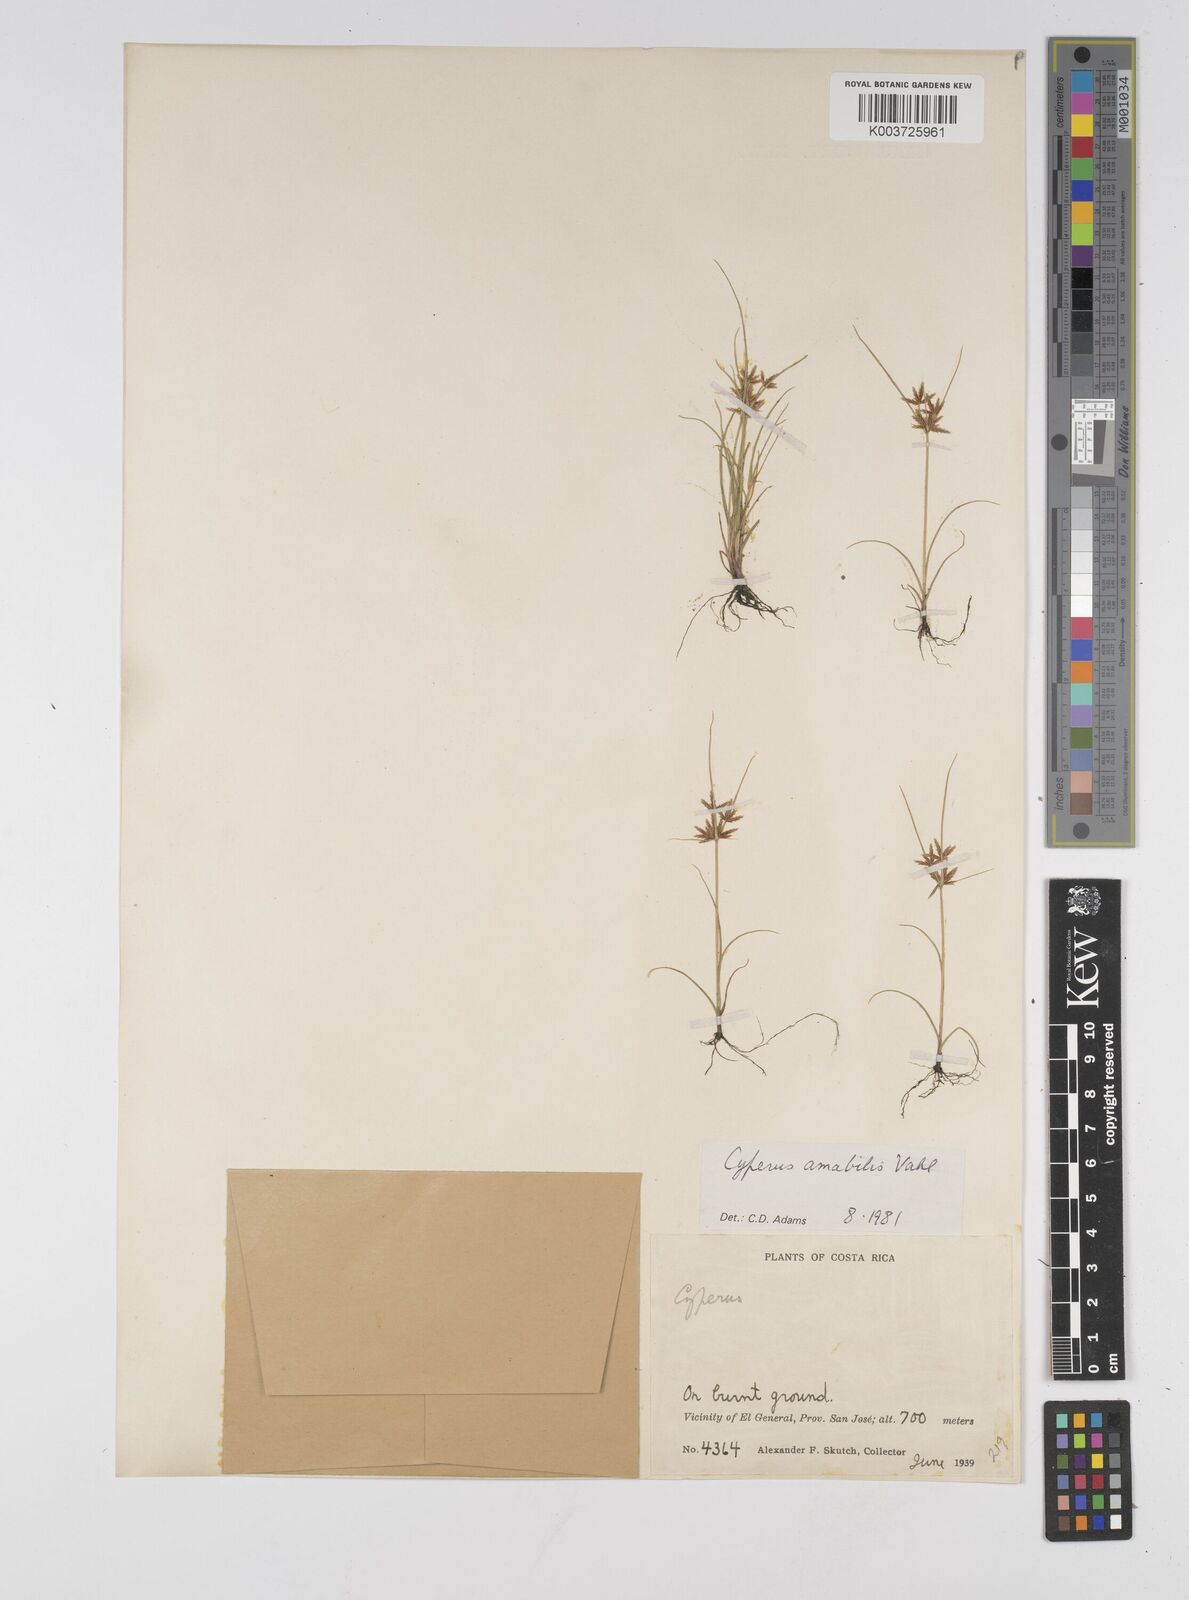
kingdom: Plantae
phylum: Tracheophyta
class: Liliopsida
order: Poales
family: Cyperaceae
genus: Cyperus
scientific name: Cyperus amabilis
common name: Foothill flat sedge
